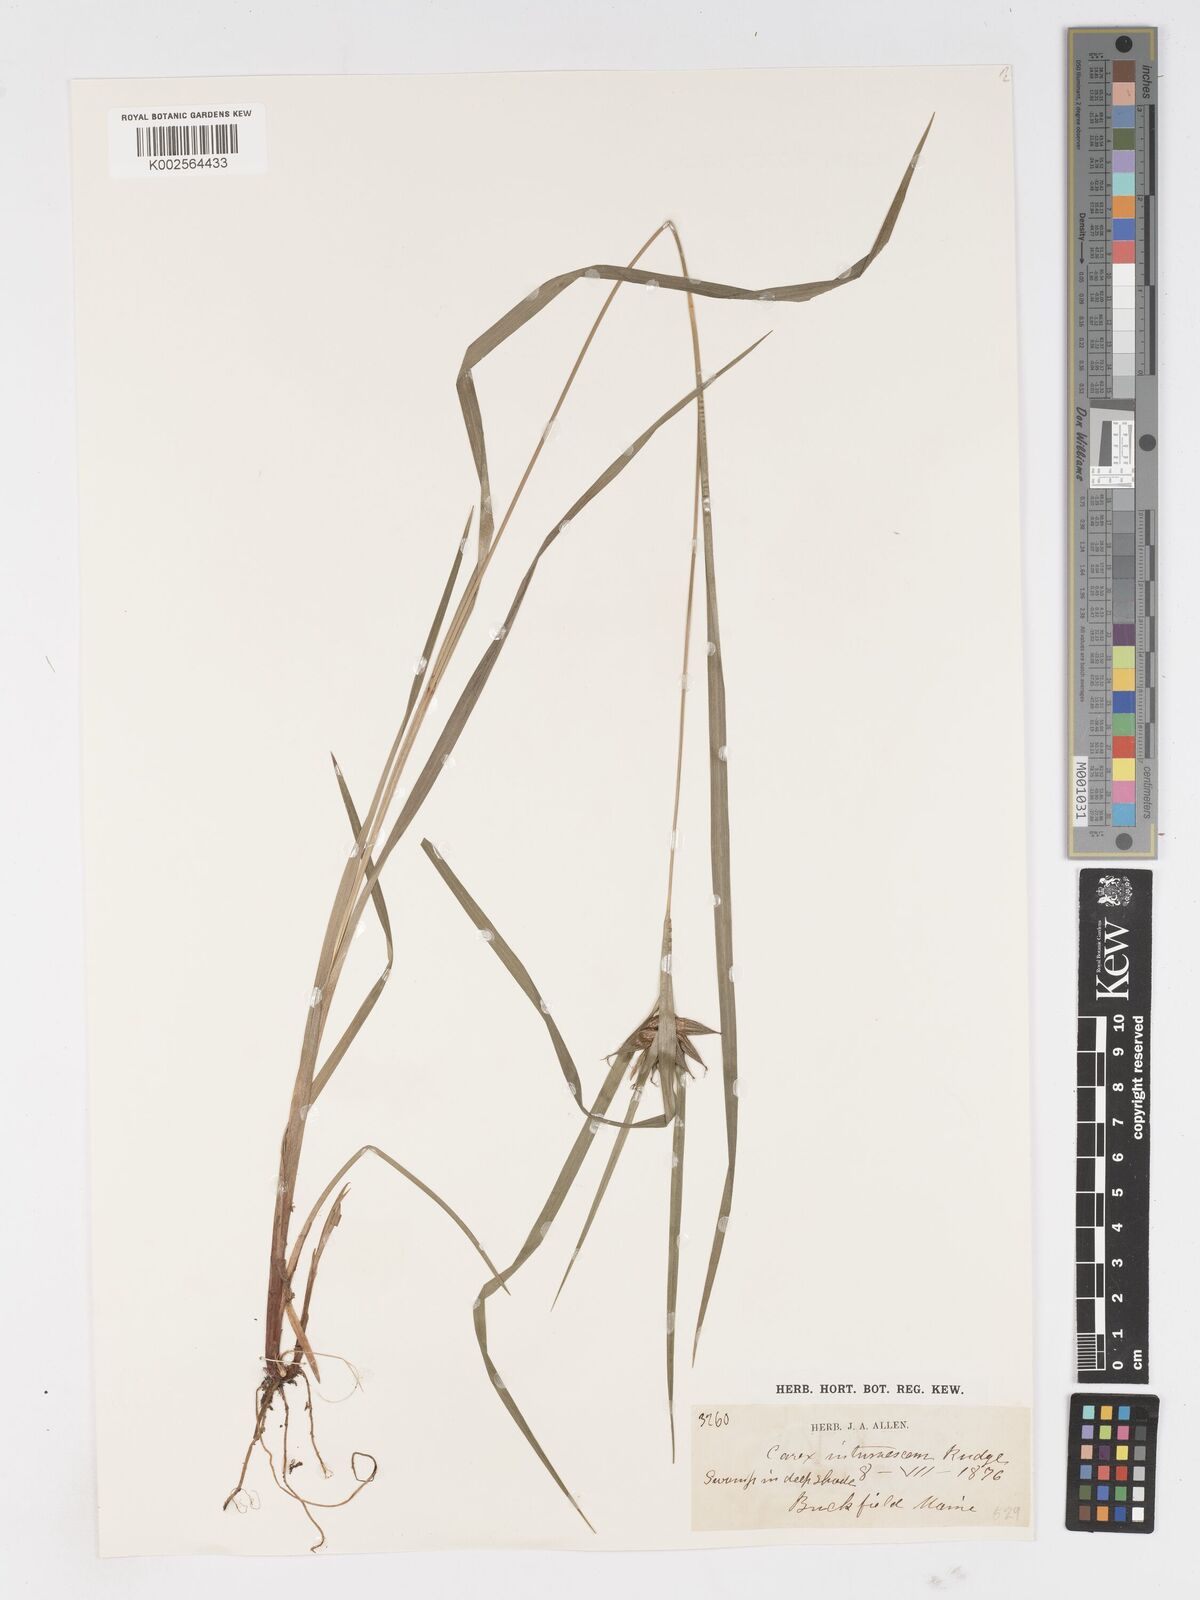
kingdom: Plantae
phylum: Tracheophyta
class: Liliopsida
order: Poales
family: Cyperaceae
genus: Carex
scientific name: Carex intumescens
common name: Greater bladder sedge
